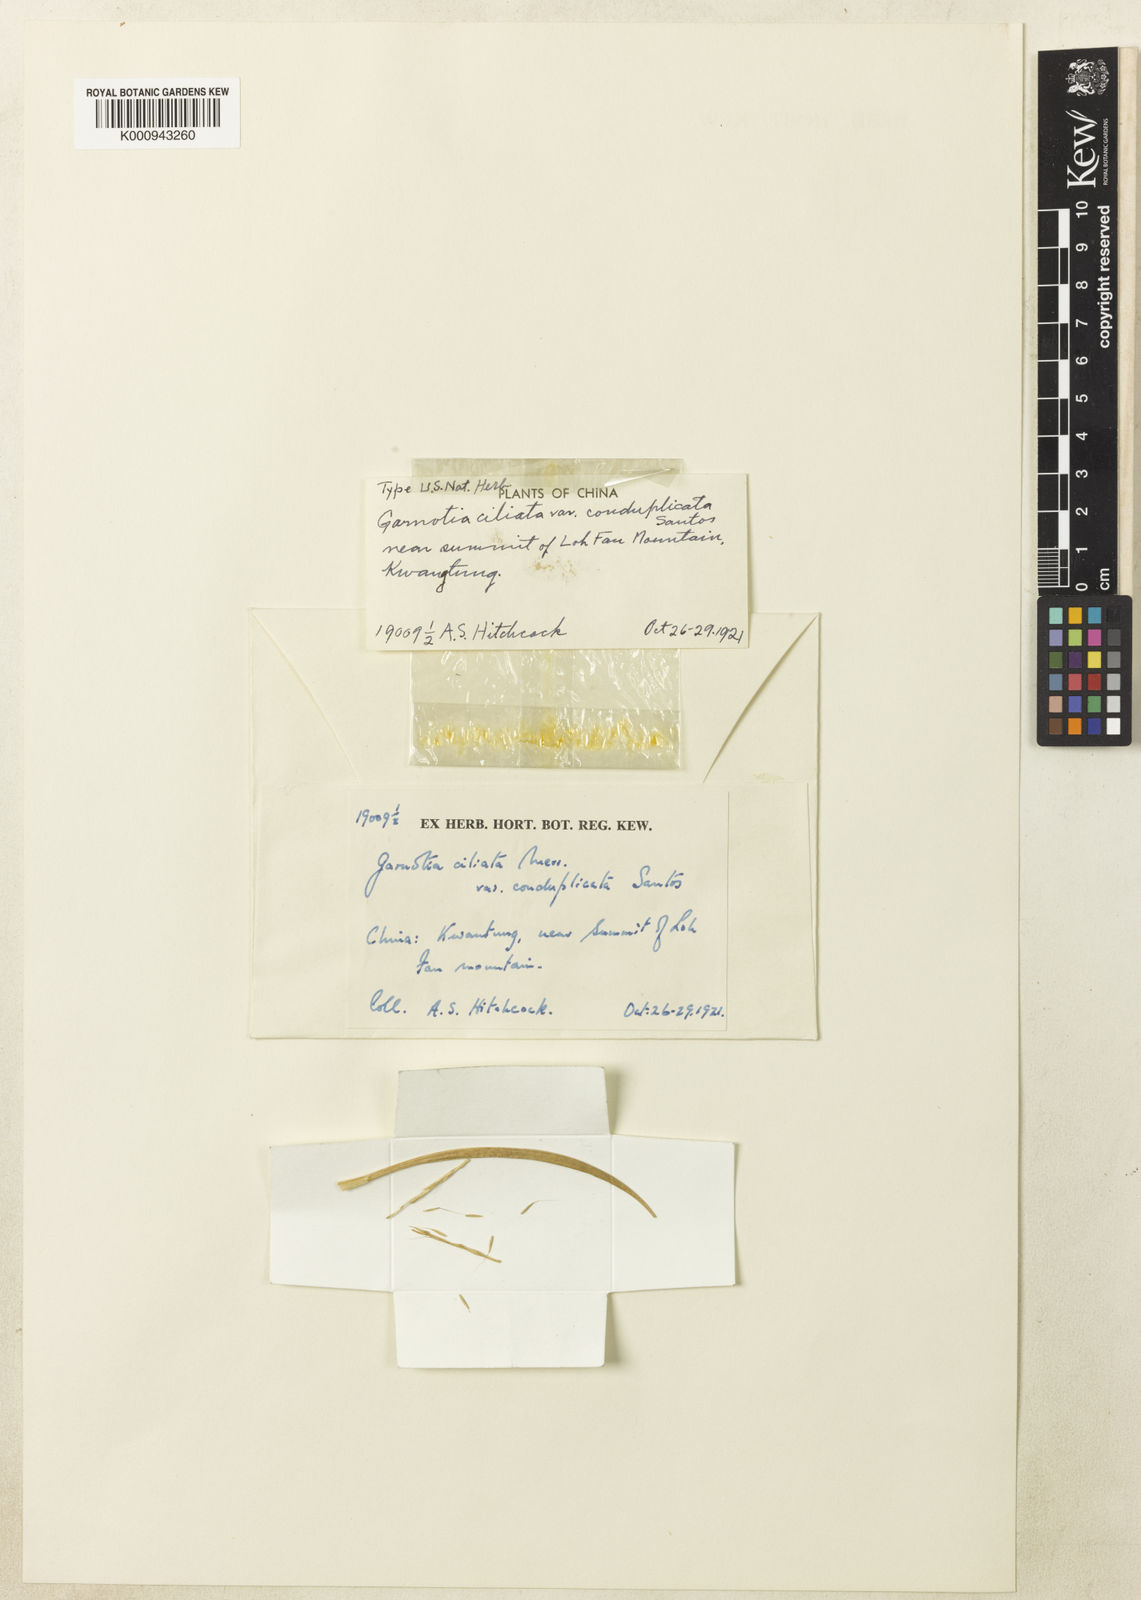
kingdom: Plantae
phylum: Tracheophyta
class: Liliopsida
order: Poales
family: Poaceae
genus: Garnotia
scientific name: Garnotia tenella
